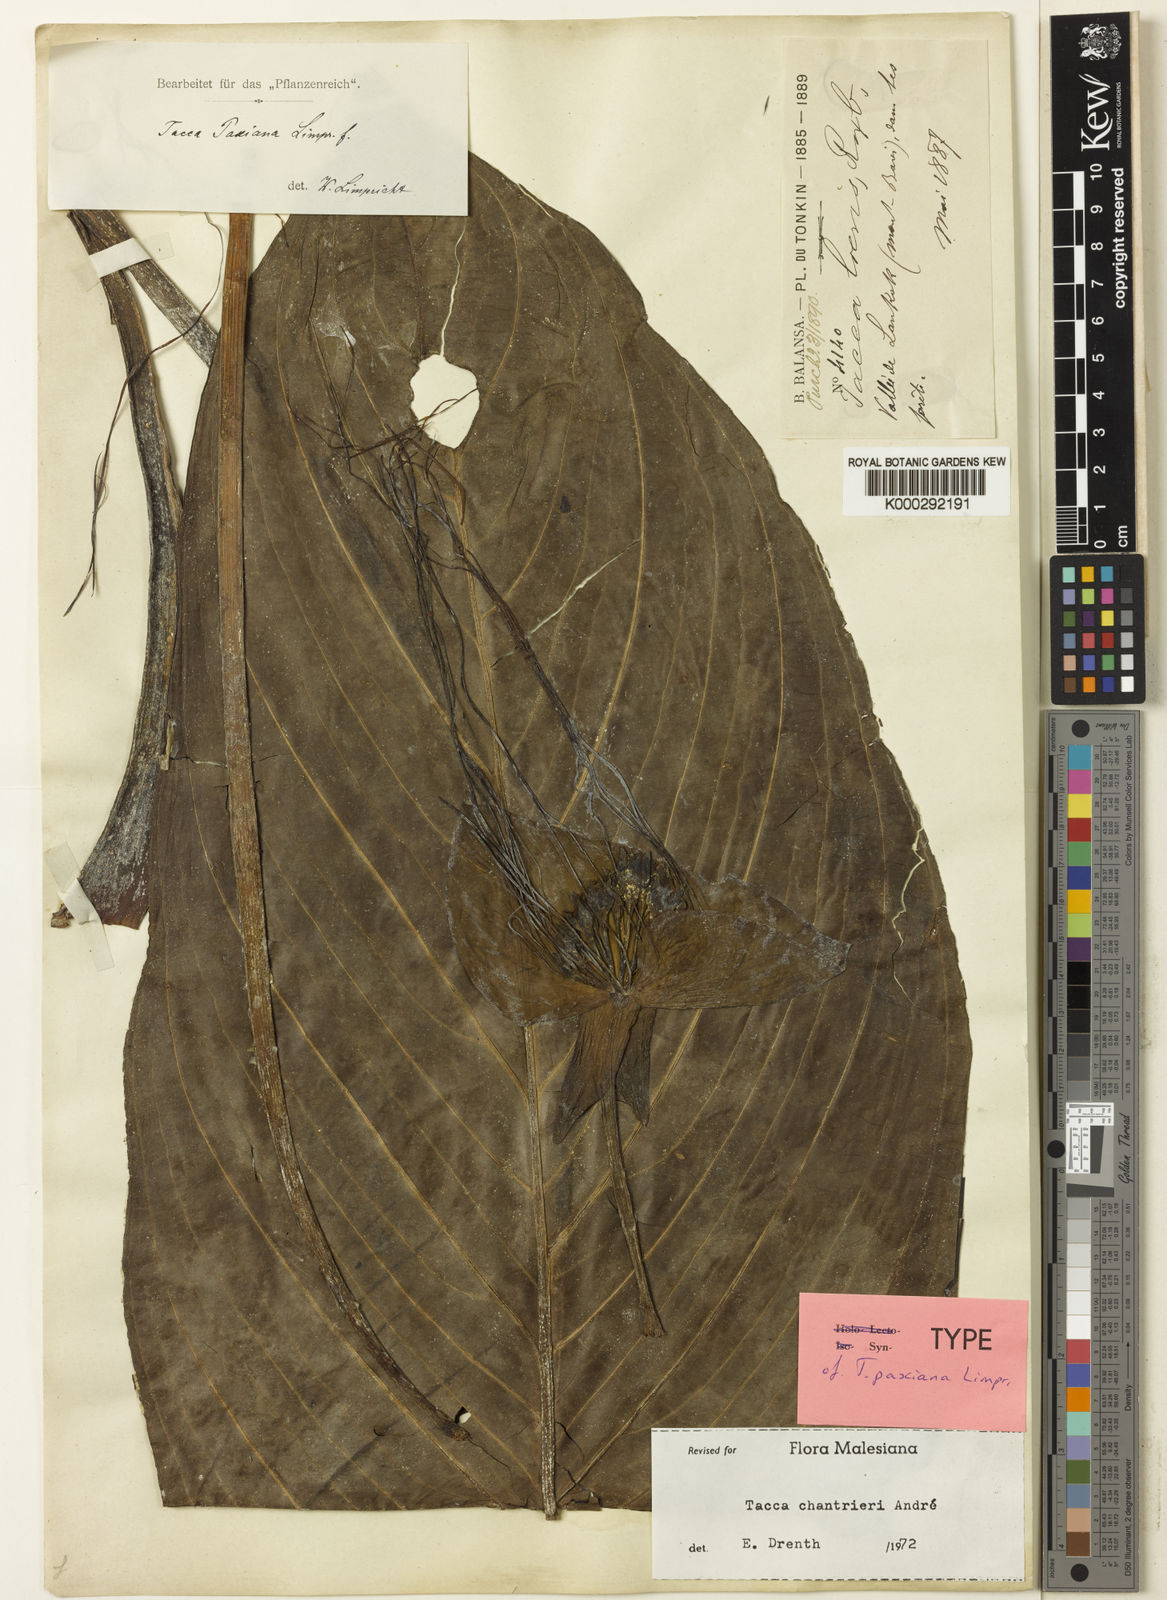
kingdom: Plantae
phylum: Tracheophyta
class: Liliopsida
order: Dioscoreales
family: Dioscoreaceae
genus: Tacca
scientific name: Tacca
